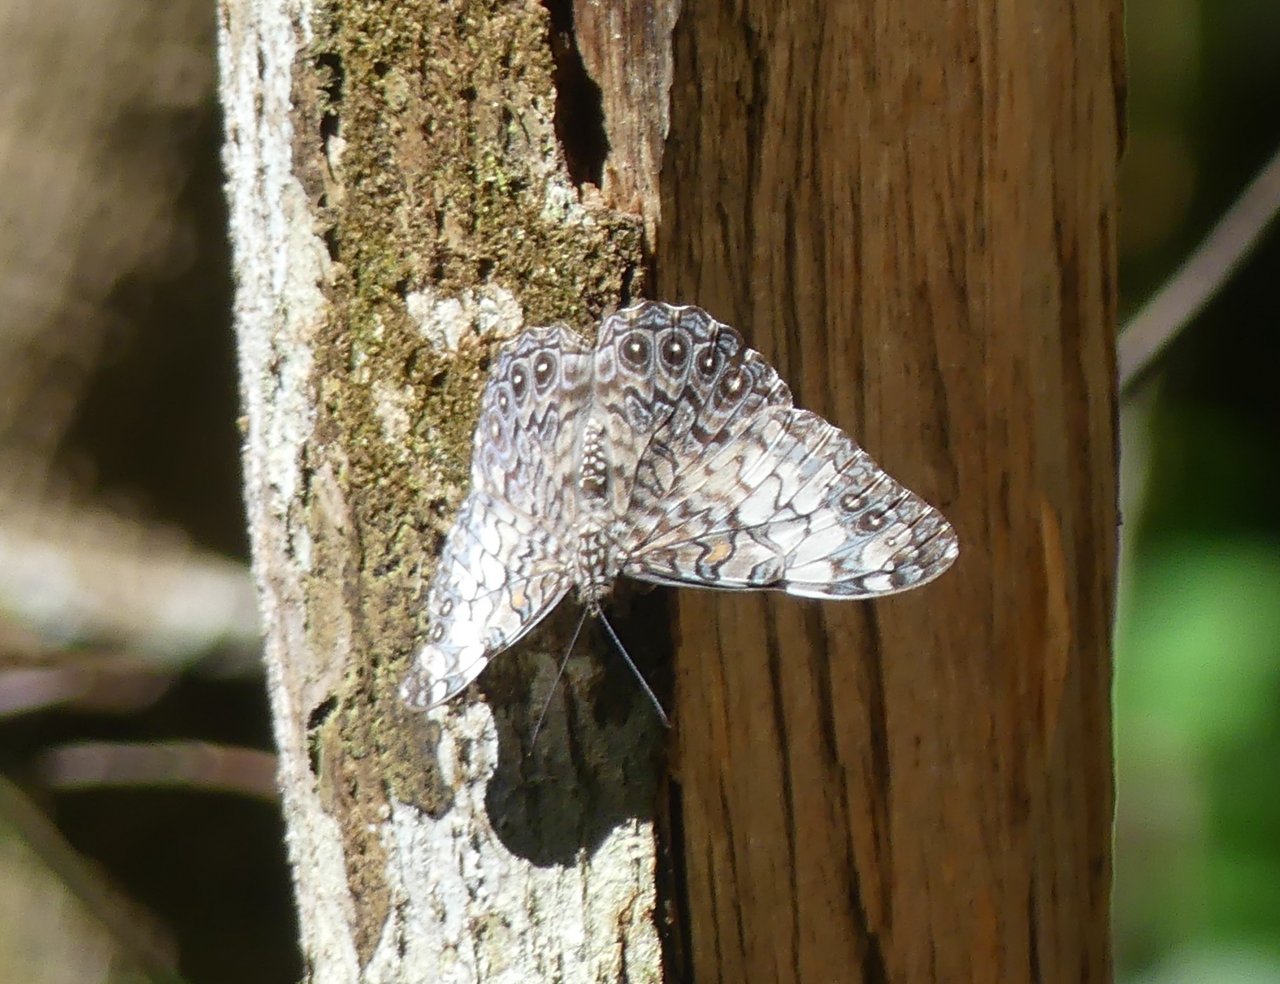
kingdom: Animalia
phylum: Arthropoda
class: Insecta
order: Lepidoptera
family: Nymphalidae
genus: Hamadryas
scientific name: Hamadryas iphthime
